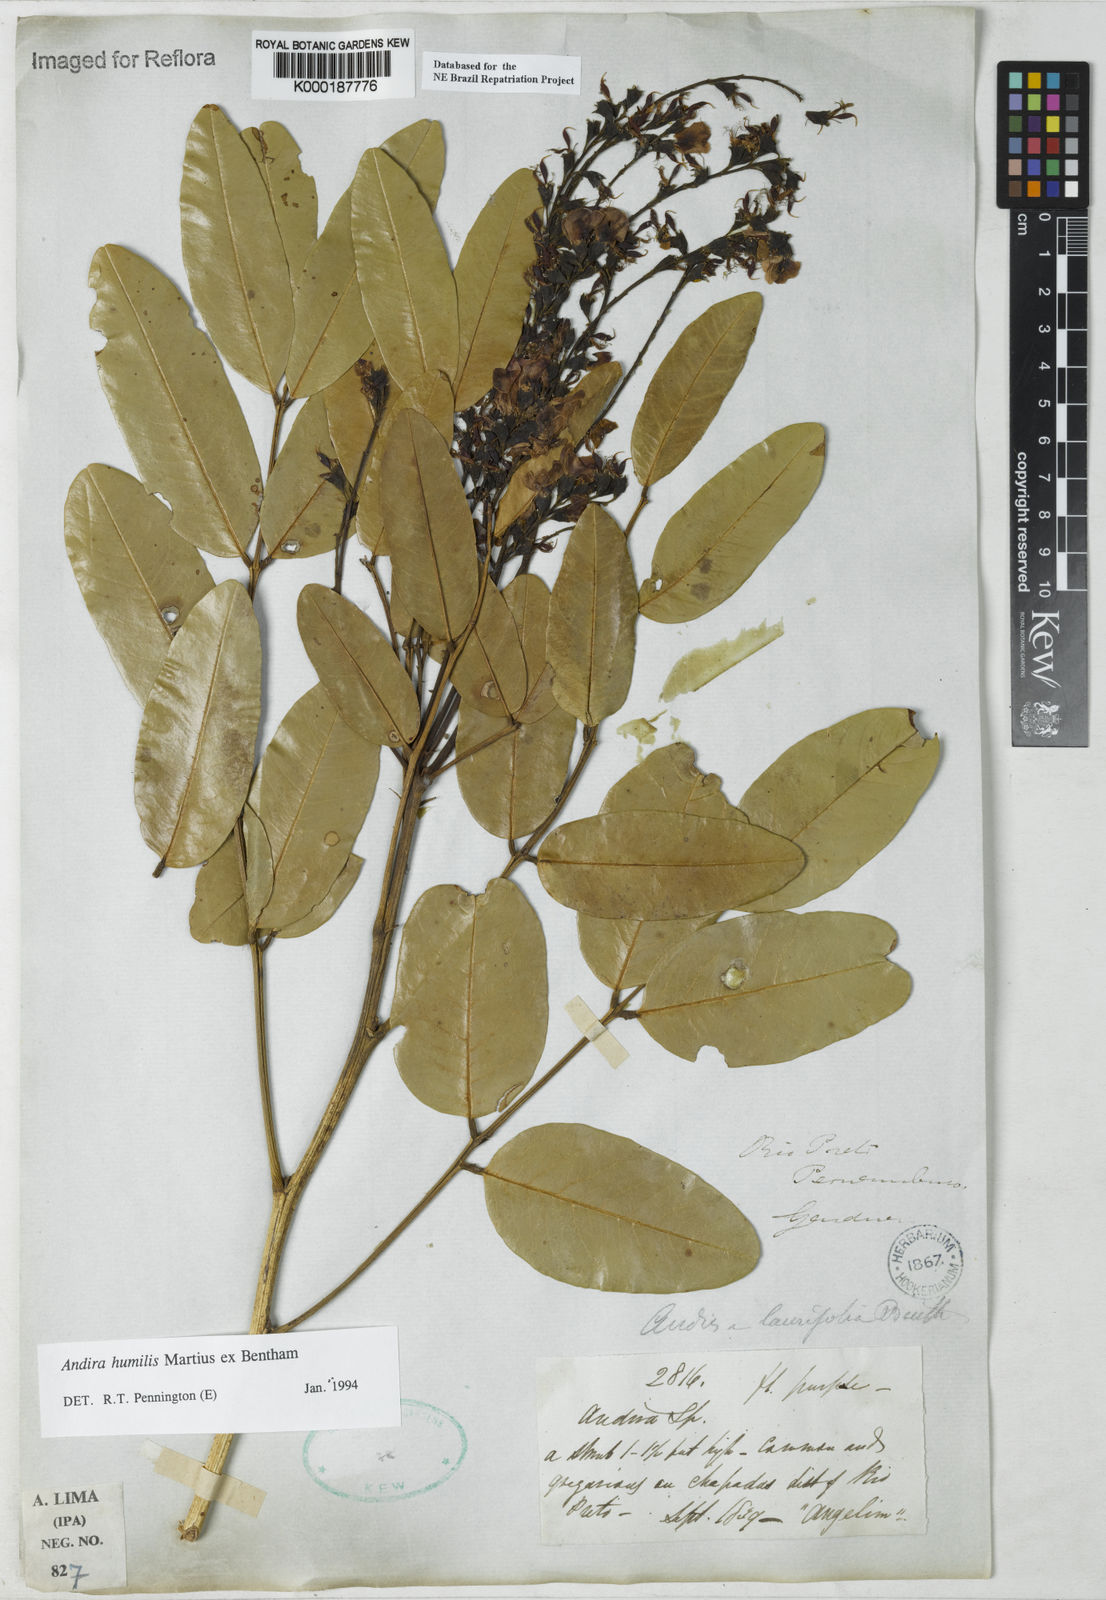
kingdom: Plantae
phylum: Tracheophyta
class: Magnoliopsida
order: Fabales
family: Fabaceae
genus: Andira
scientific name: Andira humilis
